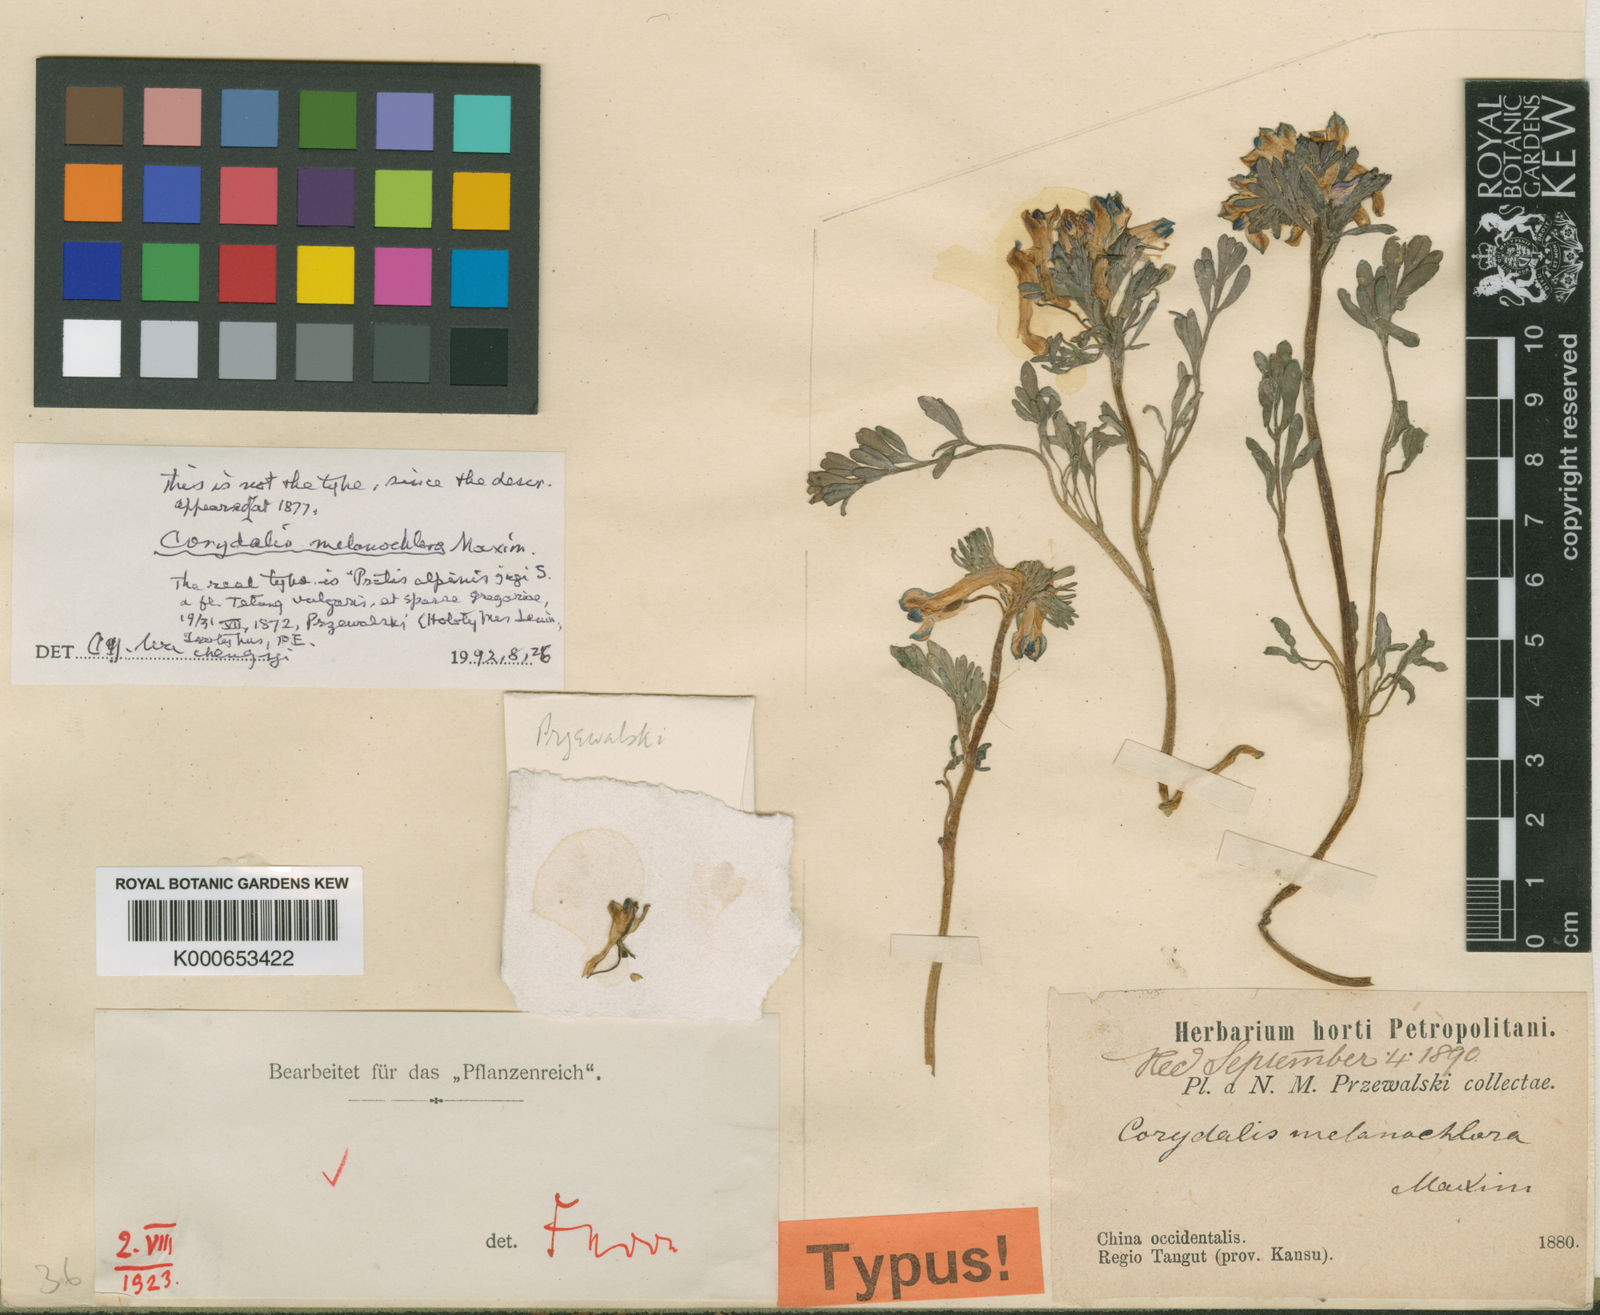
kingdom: Plantae
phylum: Tracheophyta
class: Magnoliopsida
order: Ranunculales
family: Papaveraceae
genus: Corydalis
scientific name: Corydalis melanochlora
